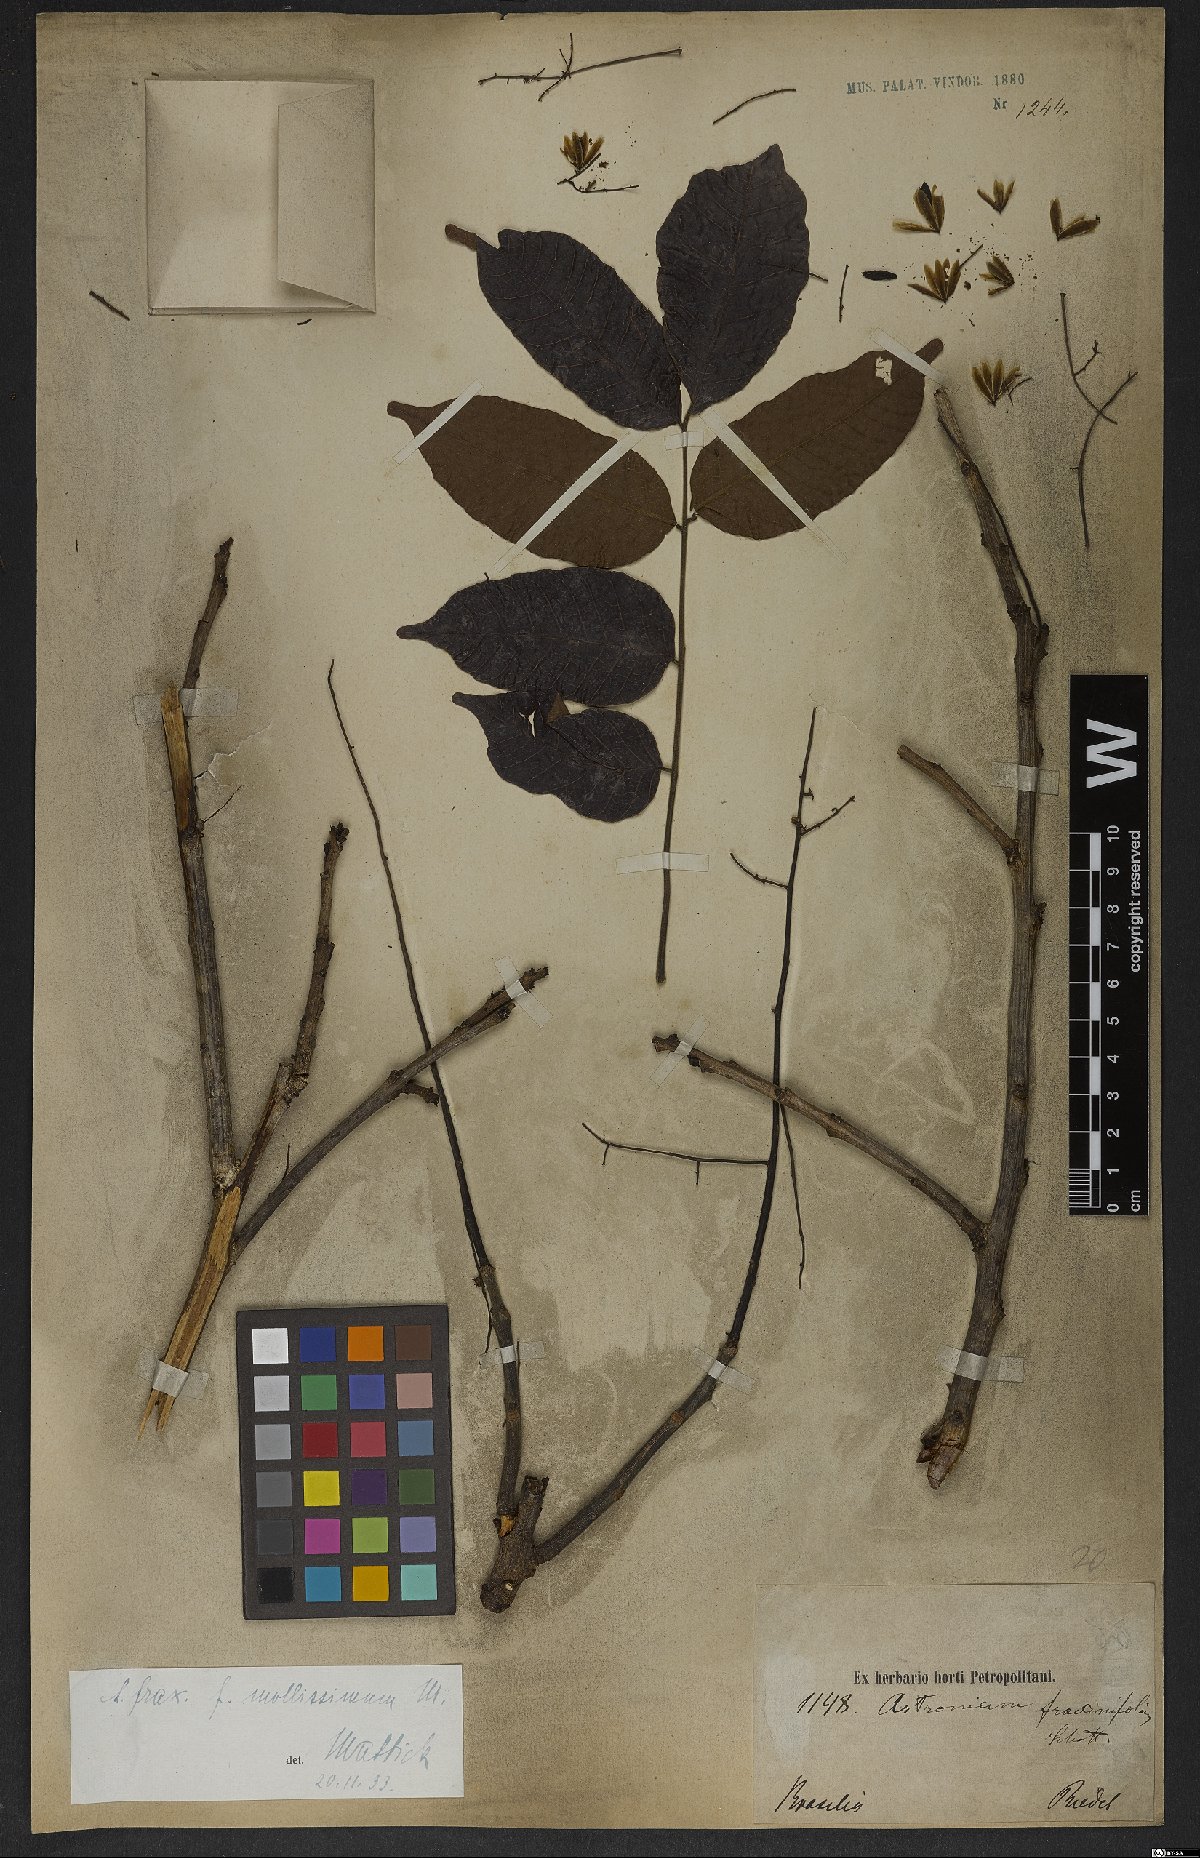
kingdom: Plantae
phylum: Tracheophyta
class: Magnoliopsida
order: Sapindales
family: Anacardiaceae
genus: Astronium
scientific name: Astronium fraxinifolium
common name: Tigerwood
